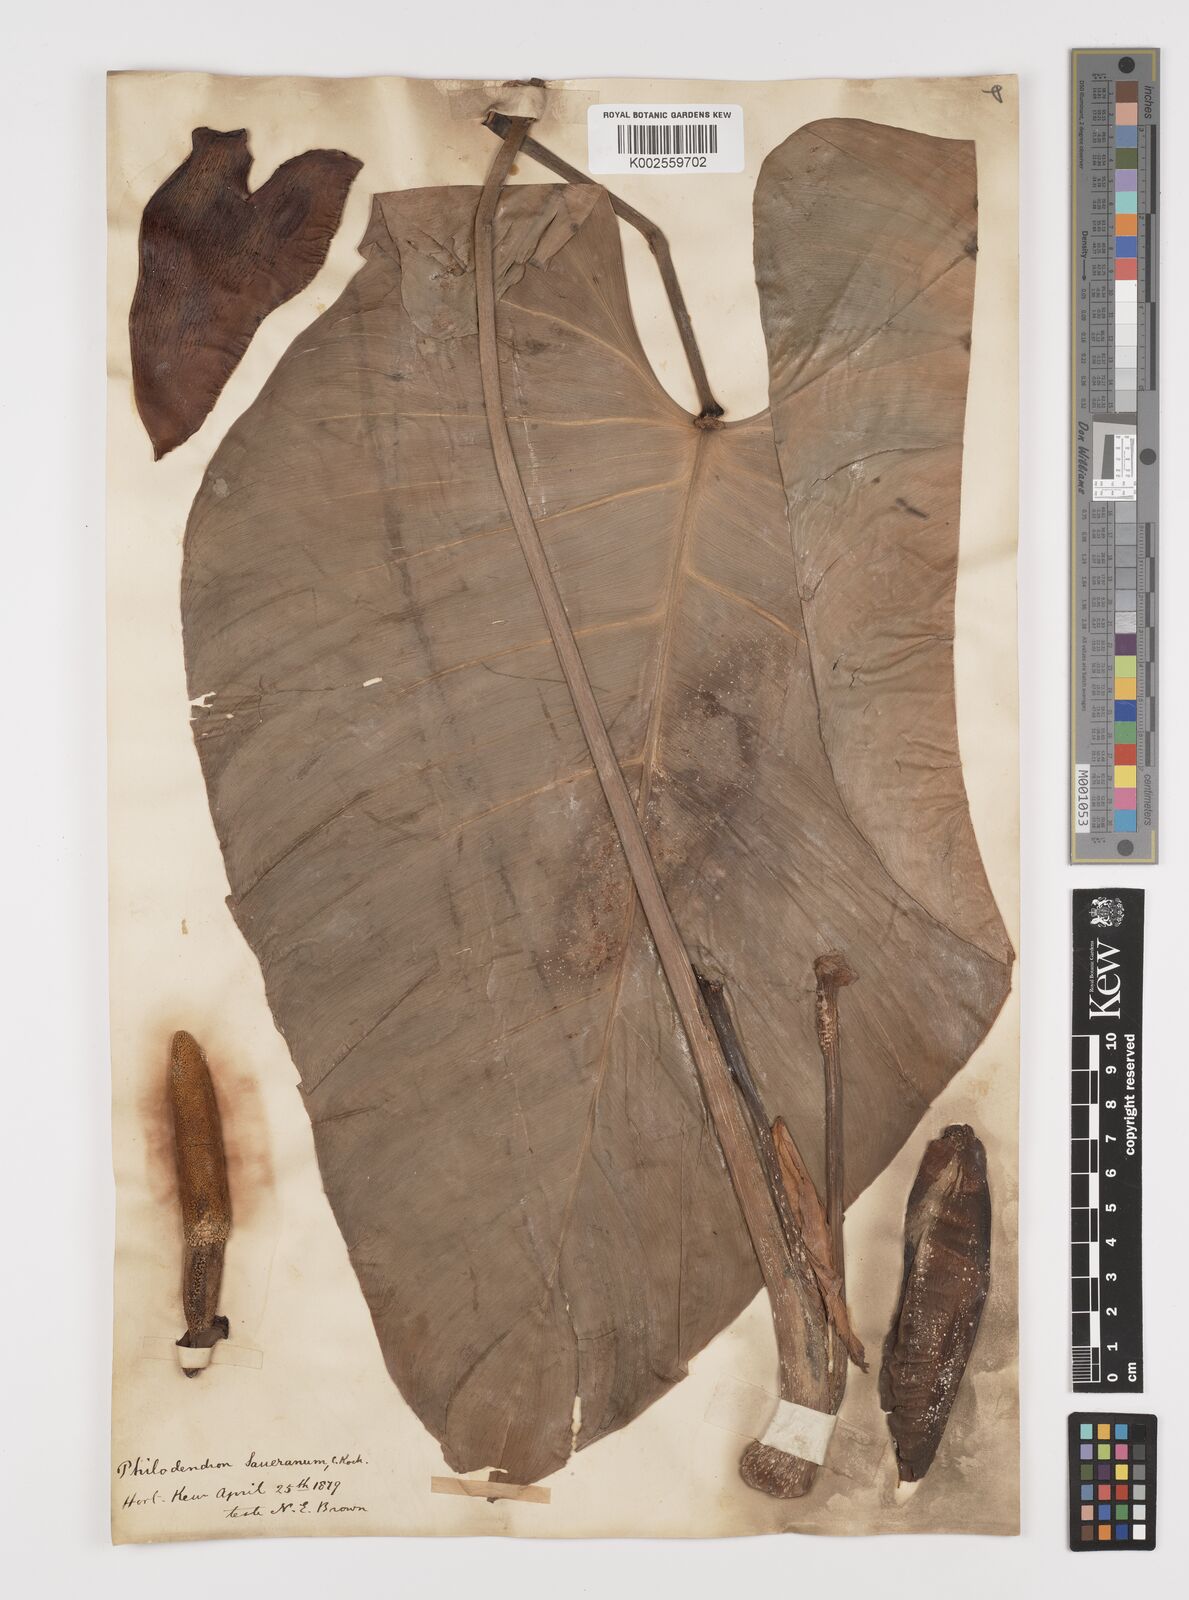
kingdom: Plantae
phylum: Tracheophyta
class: Liliopsida
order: Alismatales
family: Araceae
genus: Philodendron
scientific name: Philodendron eximium
